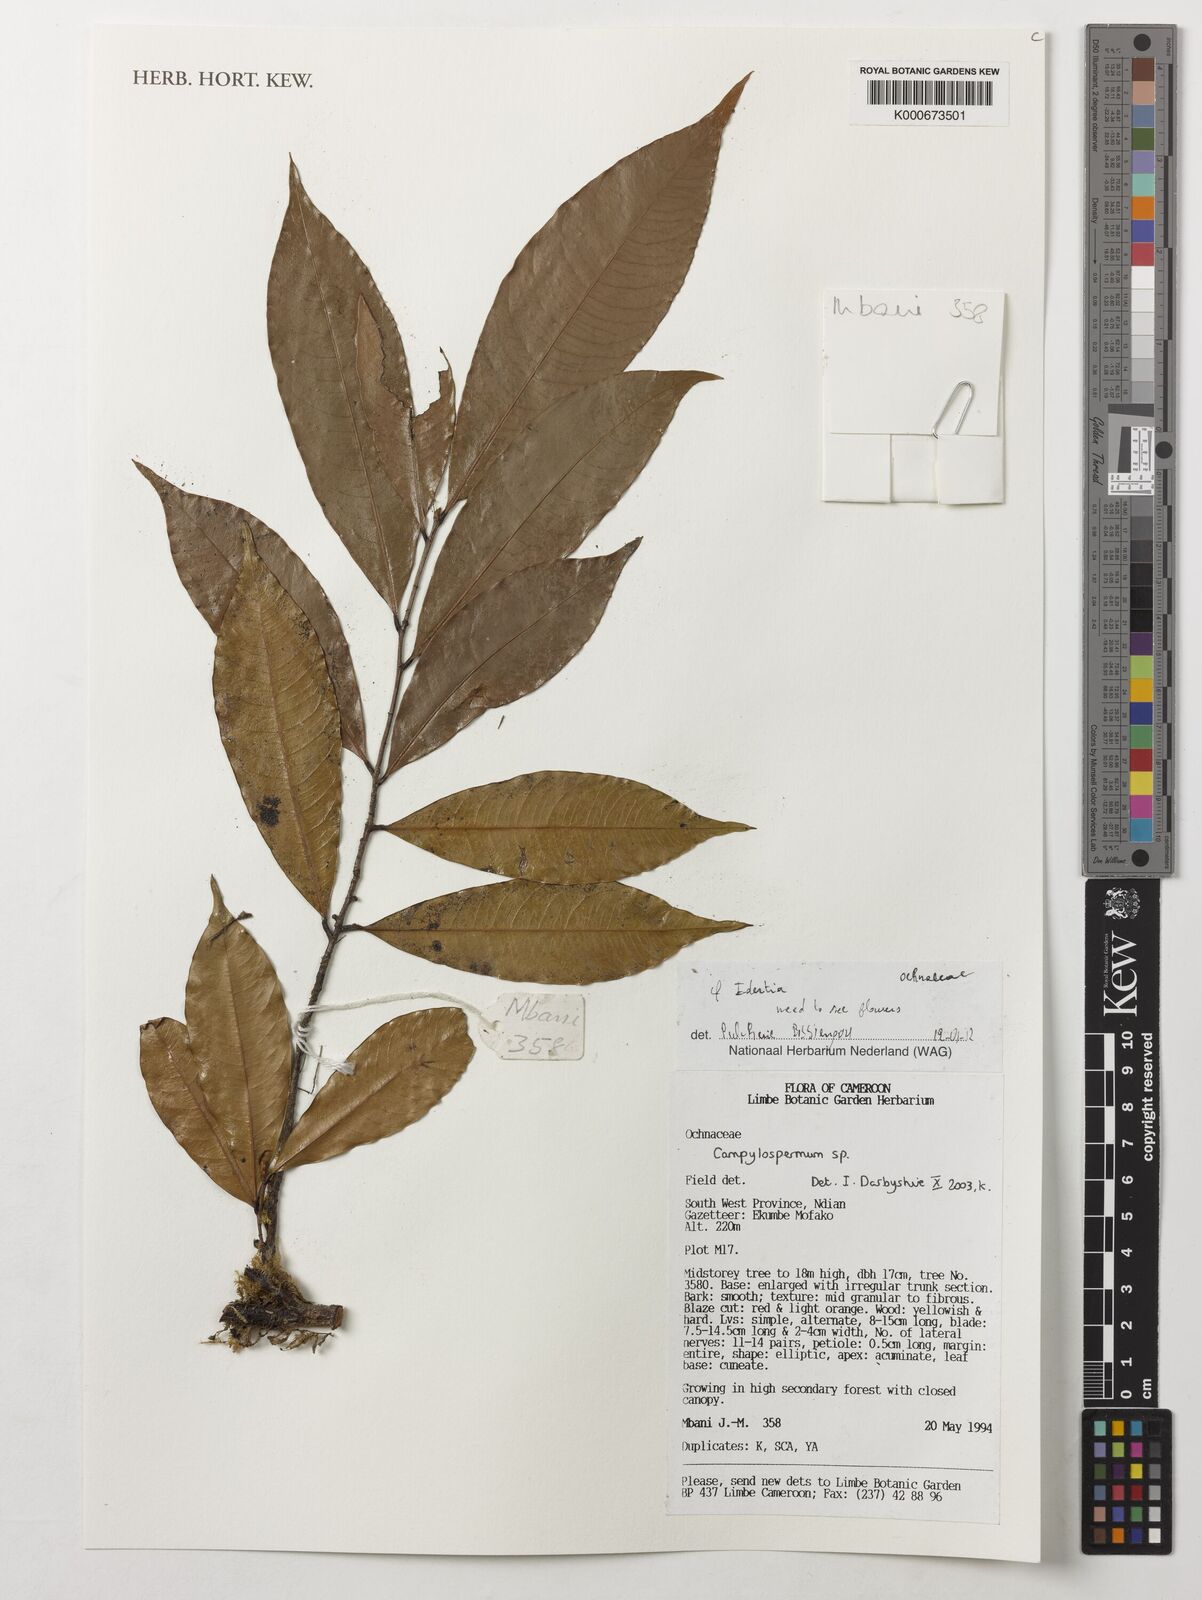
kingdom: Plantae
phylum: Tracheophyta
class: Magnoliopsida
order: Malpighiales
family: Ochnaceae
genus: Idertia
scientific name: Idertia
